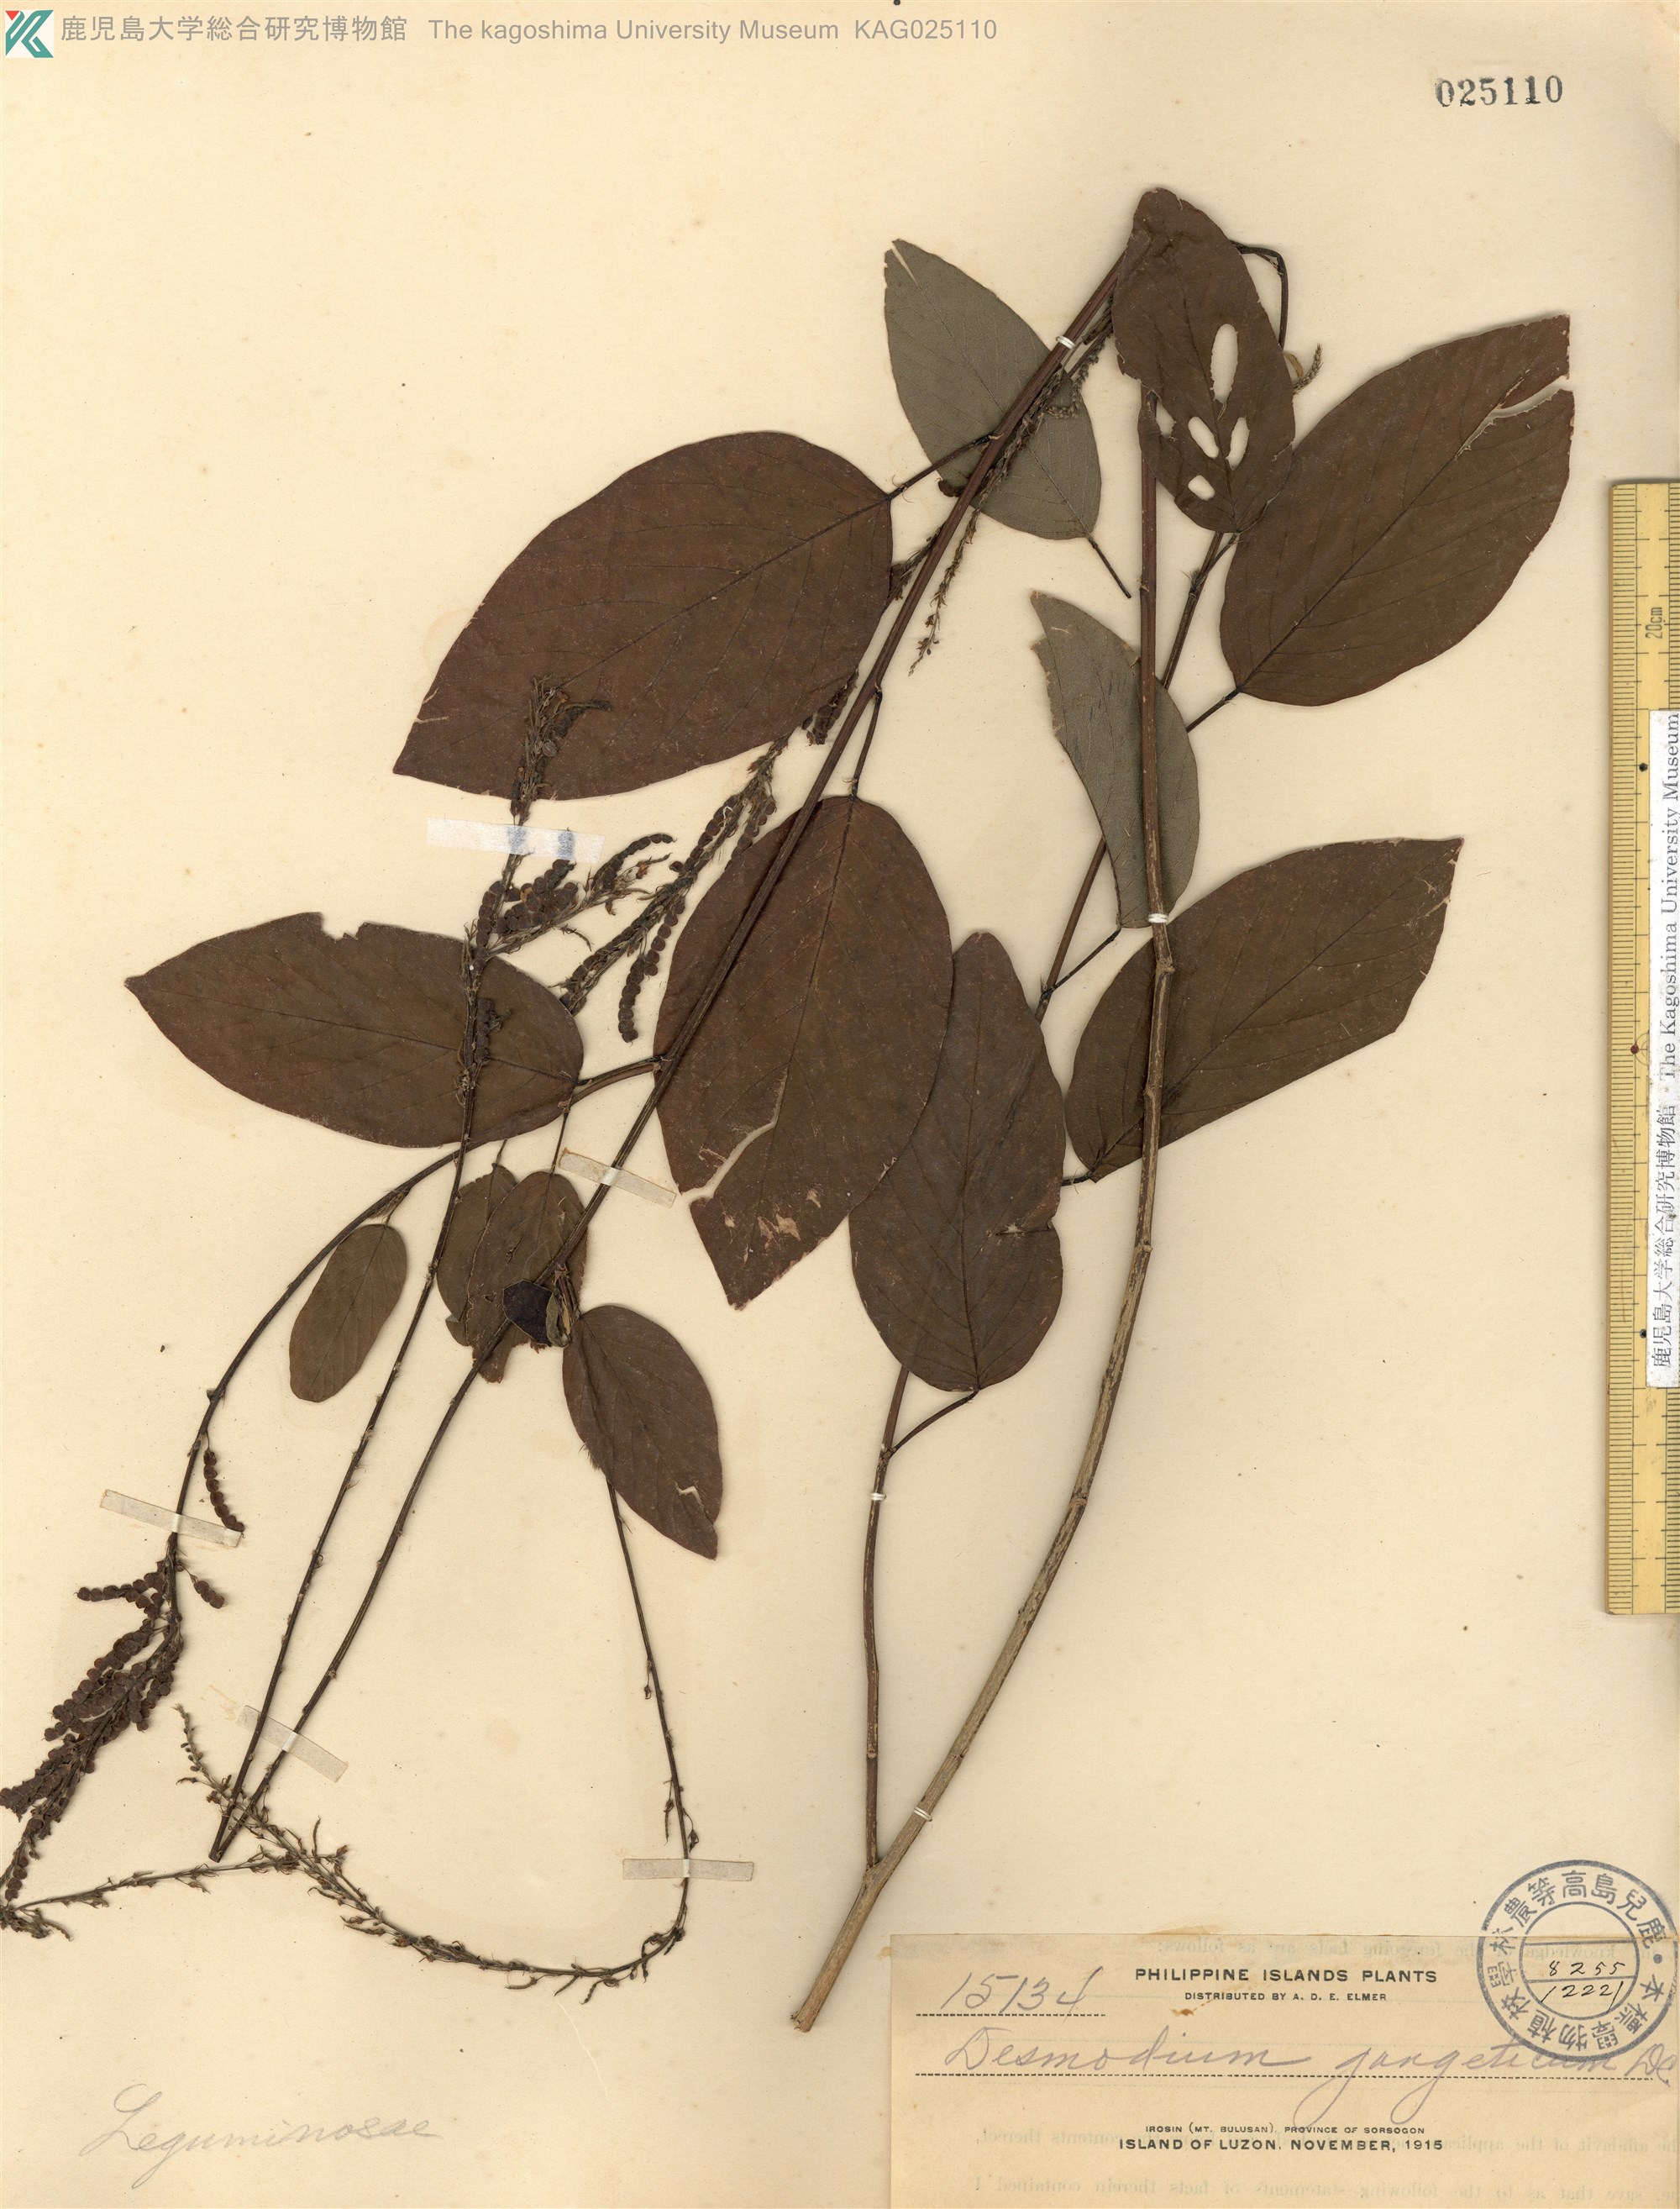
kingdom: Plantae
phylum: Tracheophyta
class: Magnoliopsida
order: Fabales
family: Fabaceae
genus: Pleurolobus
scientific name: Pleurolobus gangeticus
